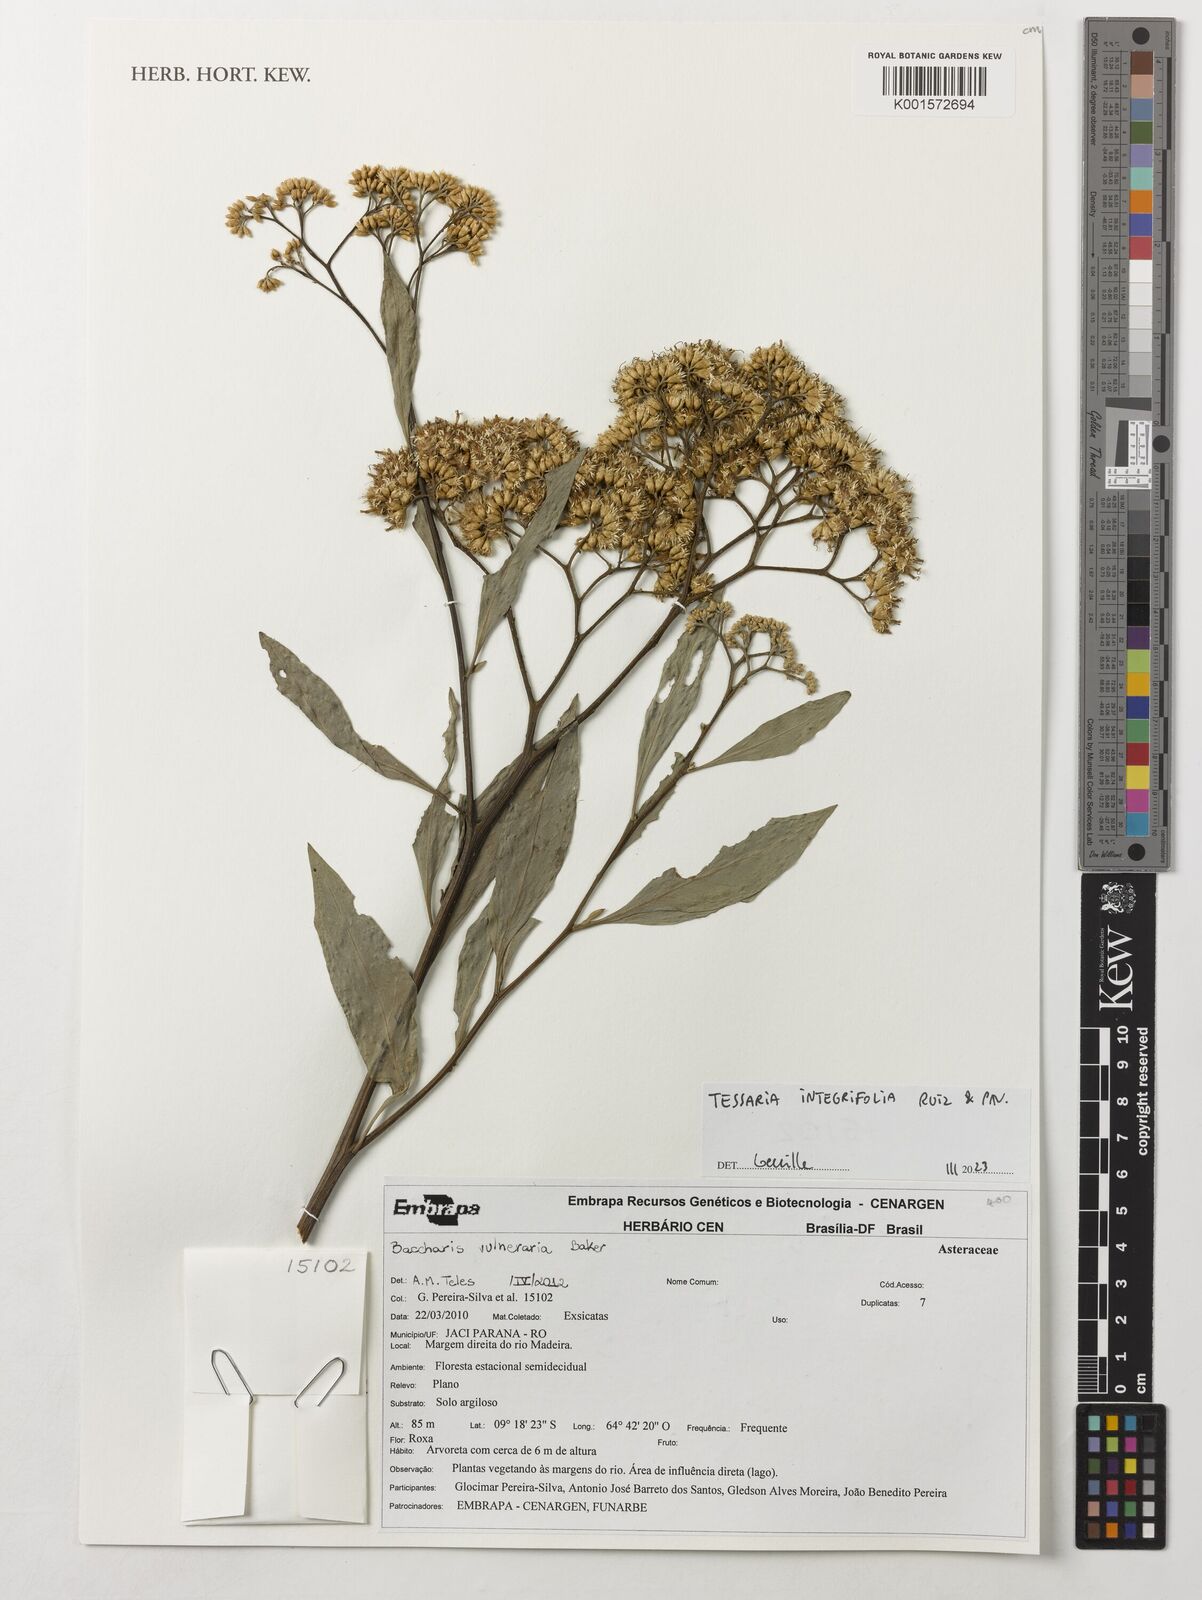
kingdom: Plantae
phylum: Tracheophyta
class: Magnoliopsida
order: Asterales
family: Asteraceae
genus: Archibaccharis
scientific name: Archibaccharis vulneraria
